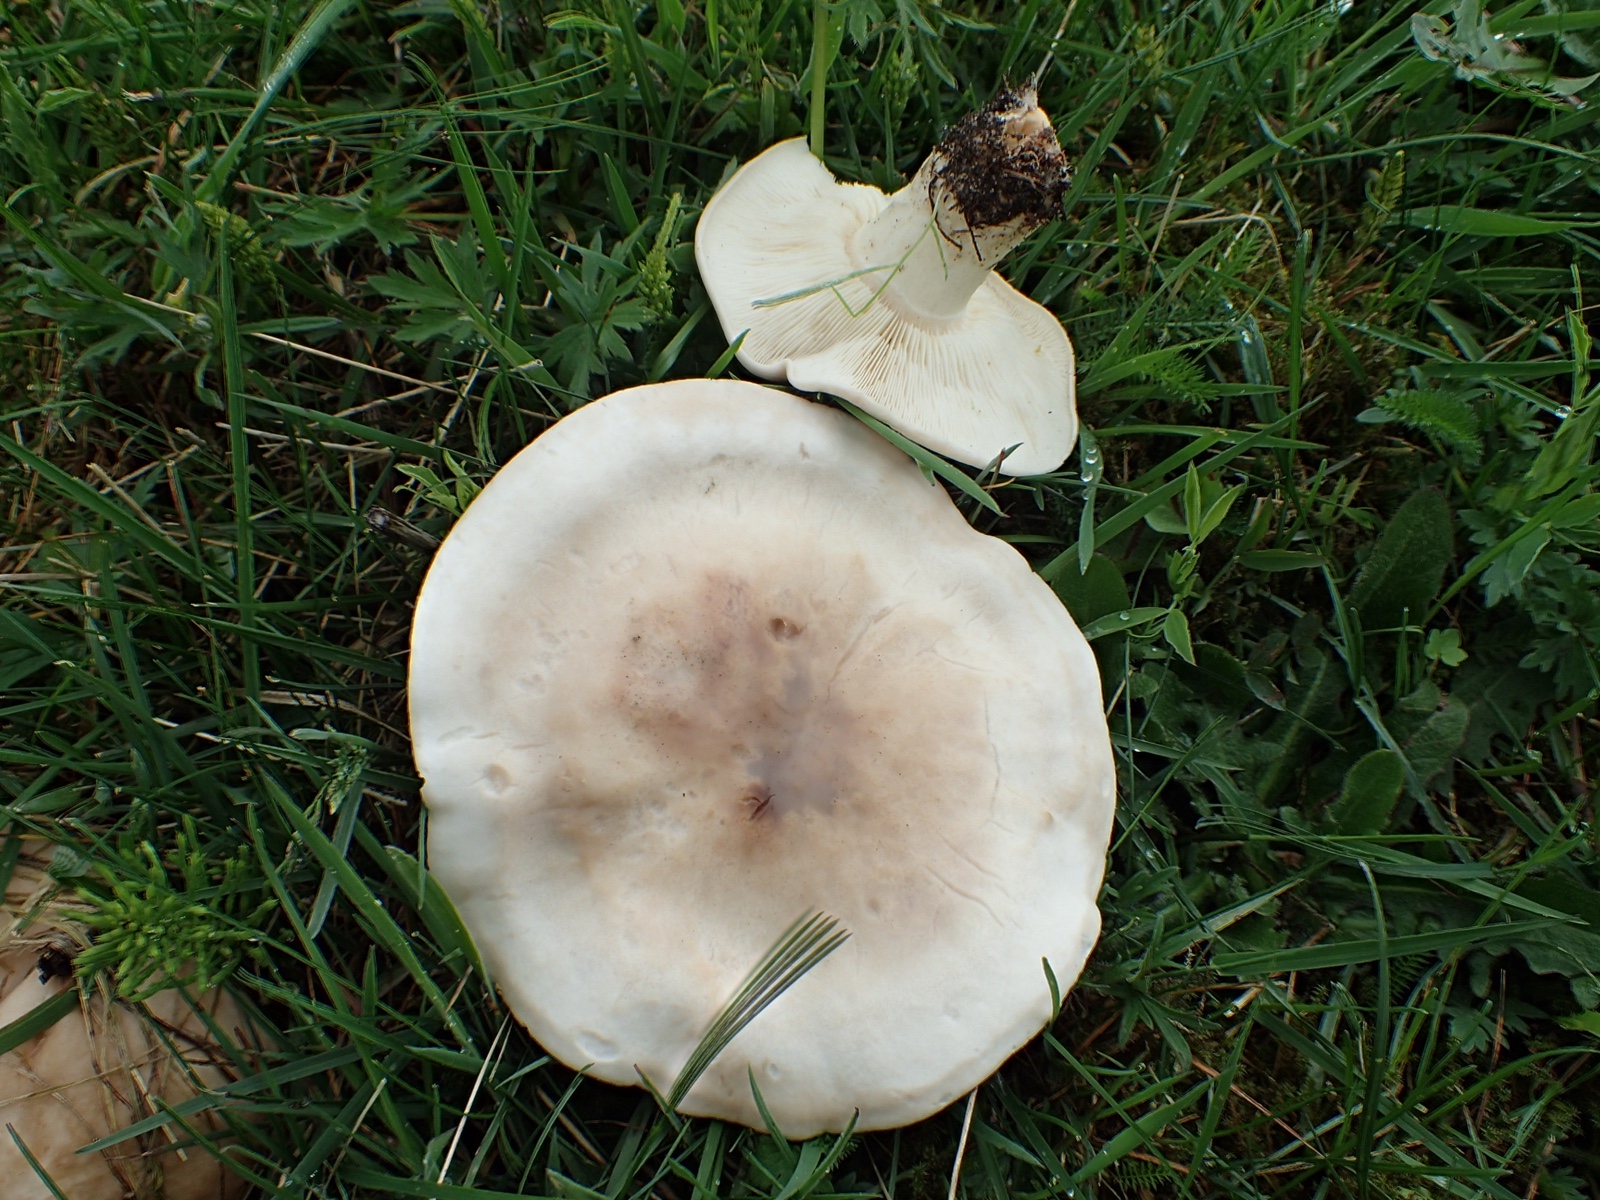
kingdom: Fungi
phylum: Basidiomycota
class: Agaricomycetes
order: Agaricales
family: Lyophyllaceae
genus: Calocybe
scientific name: Calocybe gambosa
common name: vårmusseron
